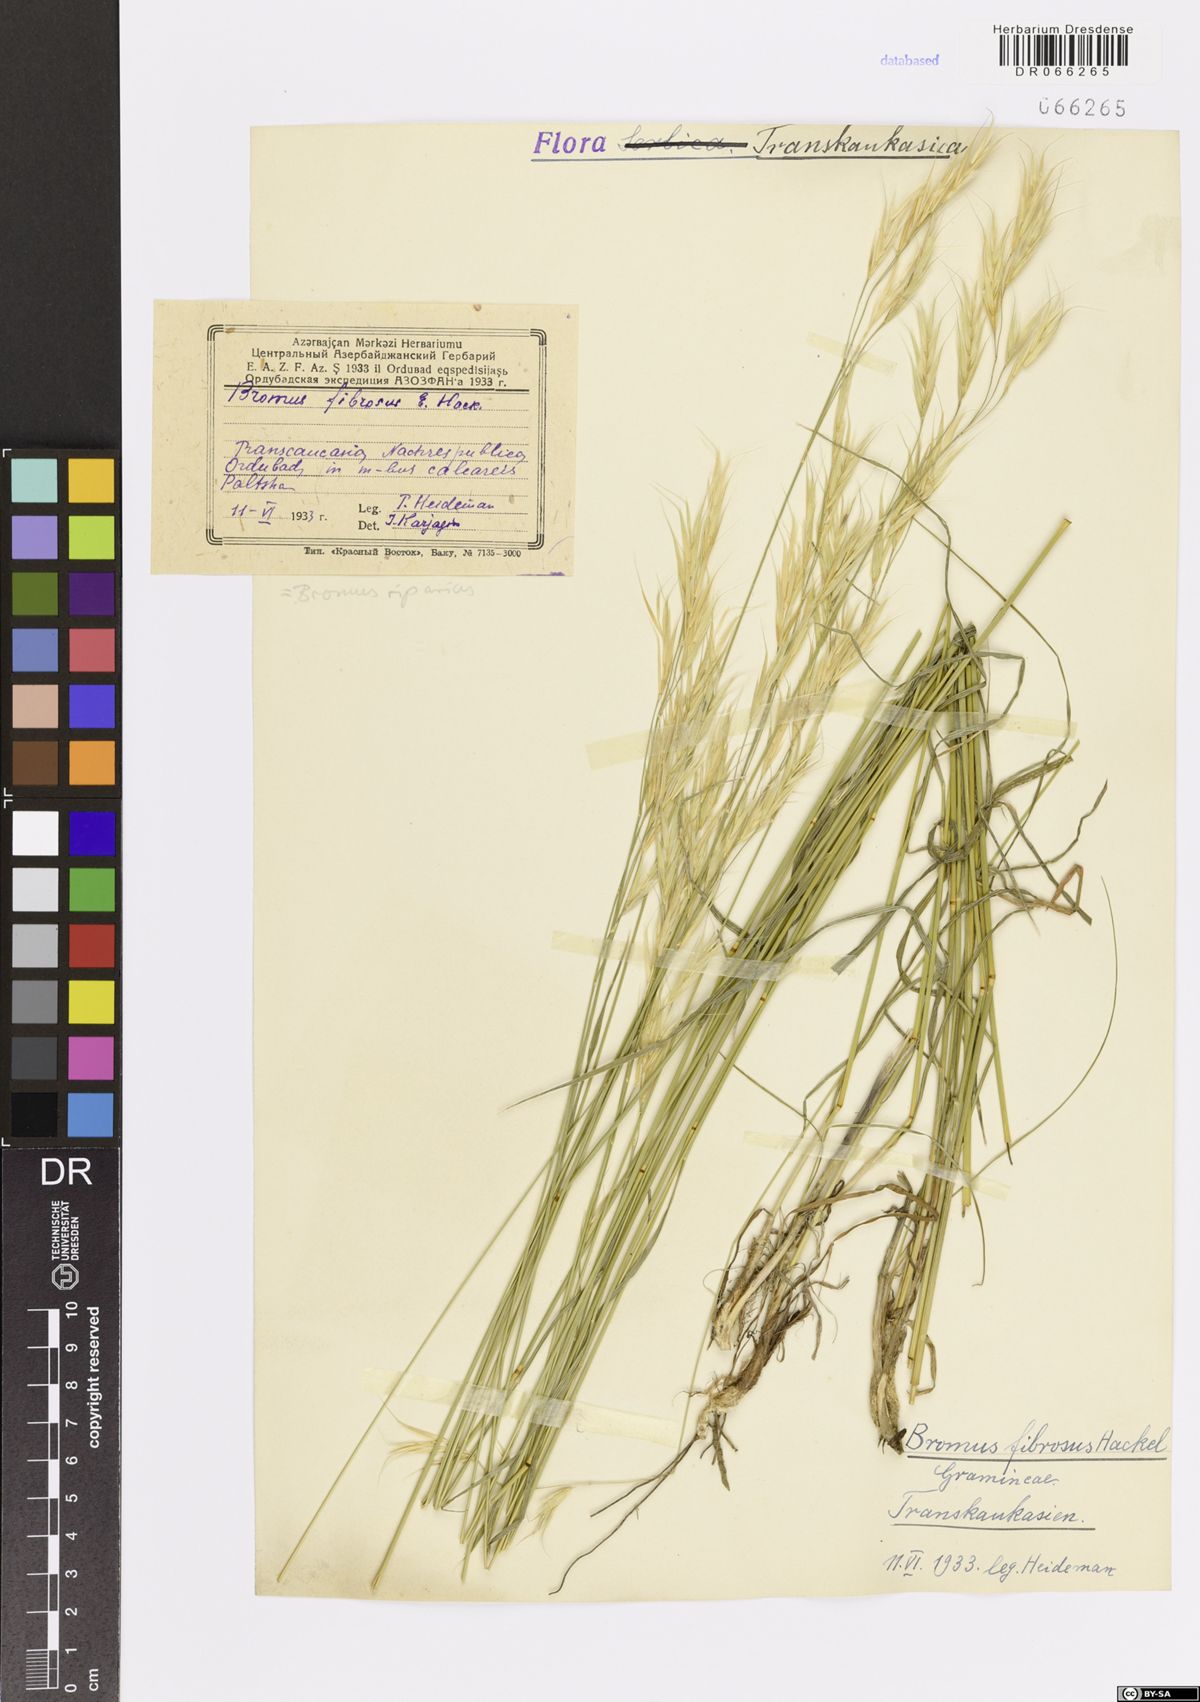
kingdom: Plantae
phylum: Tracheophyta
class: Liliopsida
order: Poales
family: Poaceae
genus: Bromus
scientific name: Bromus riparius
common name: Meadow brome
